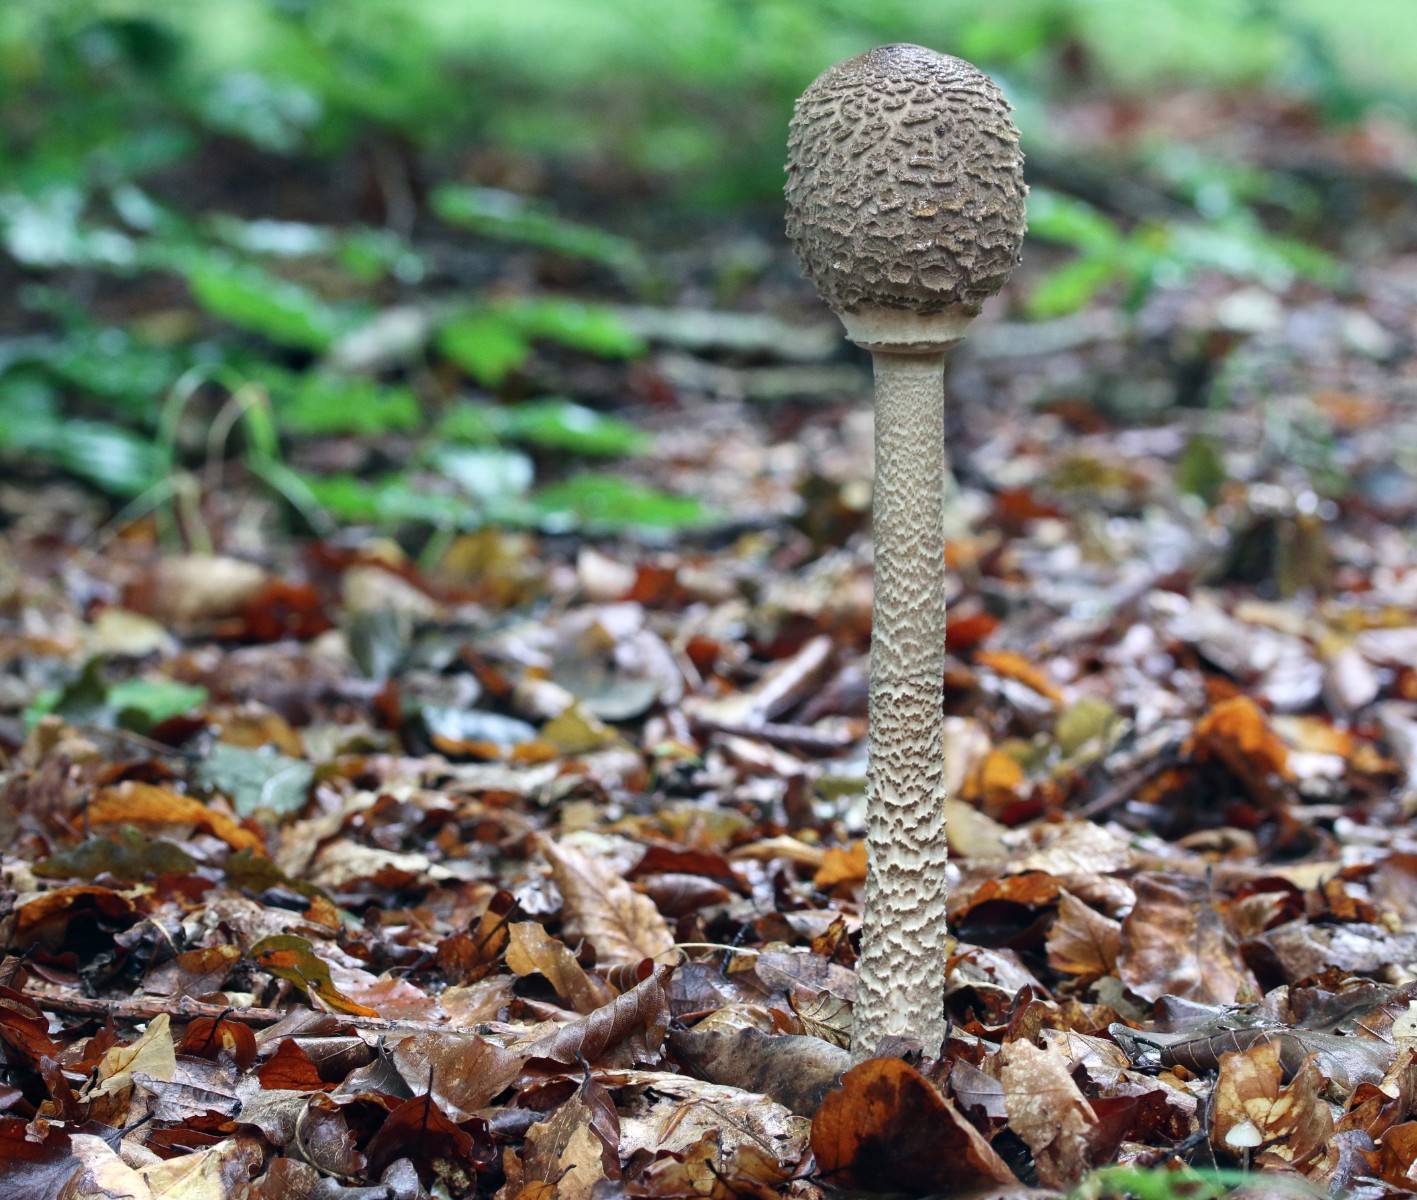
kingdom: Fungi
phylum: Basidiomycota
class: Agaricomycetes
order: Agaricales
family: Agaricaceae
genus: Macrolepiota
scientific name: Macrolepiota procera
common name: stor kæmpeparasolhat
